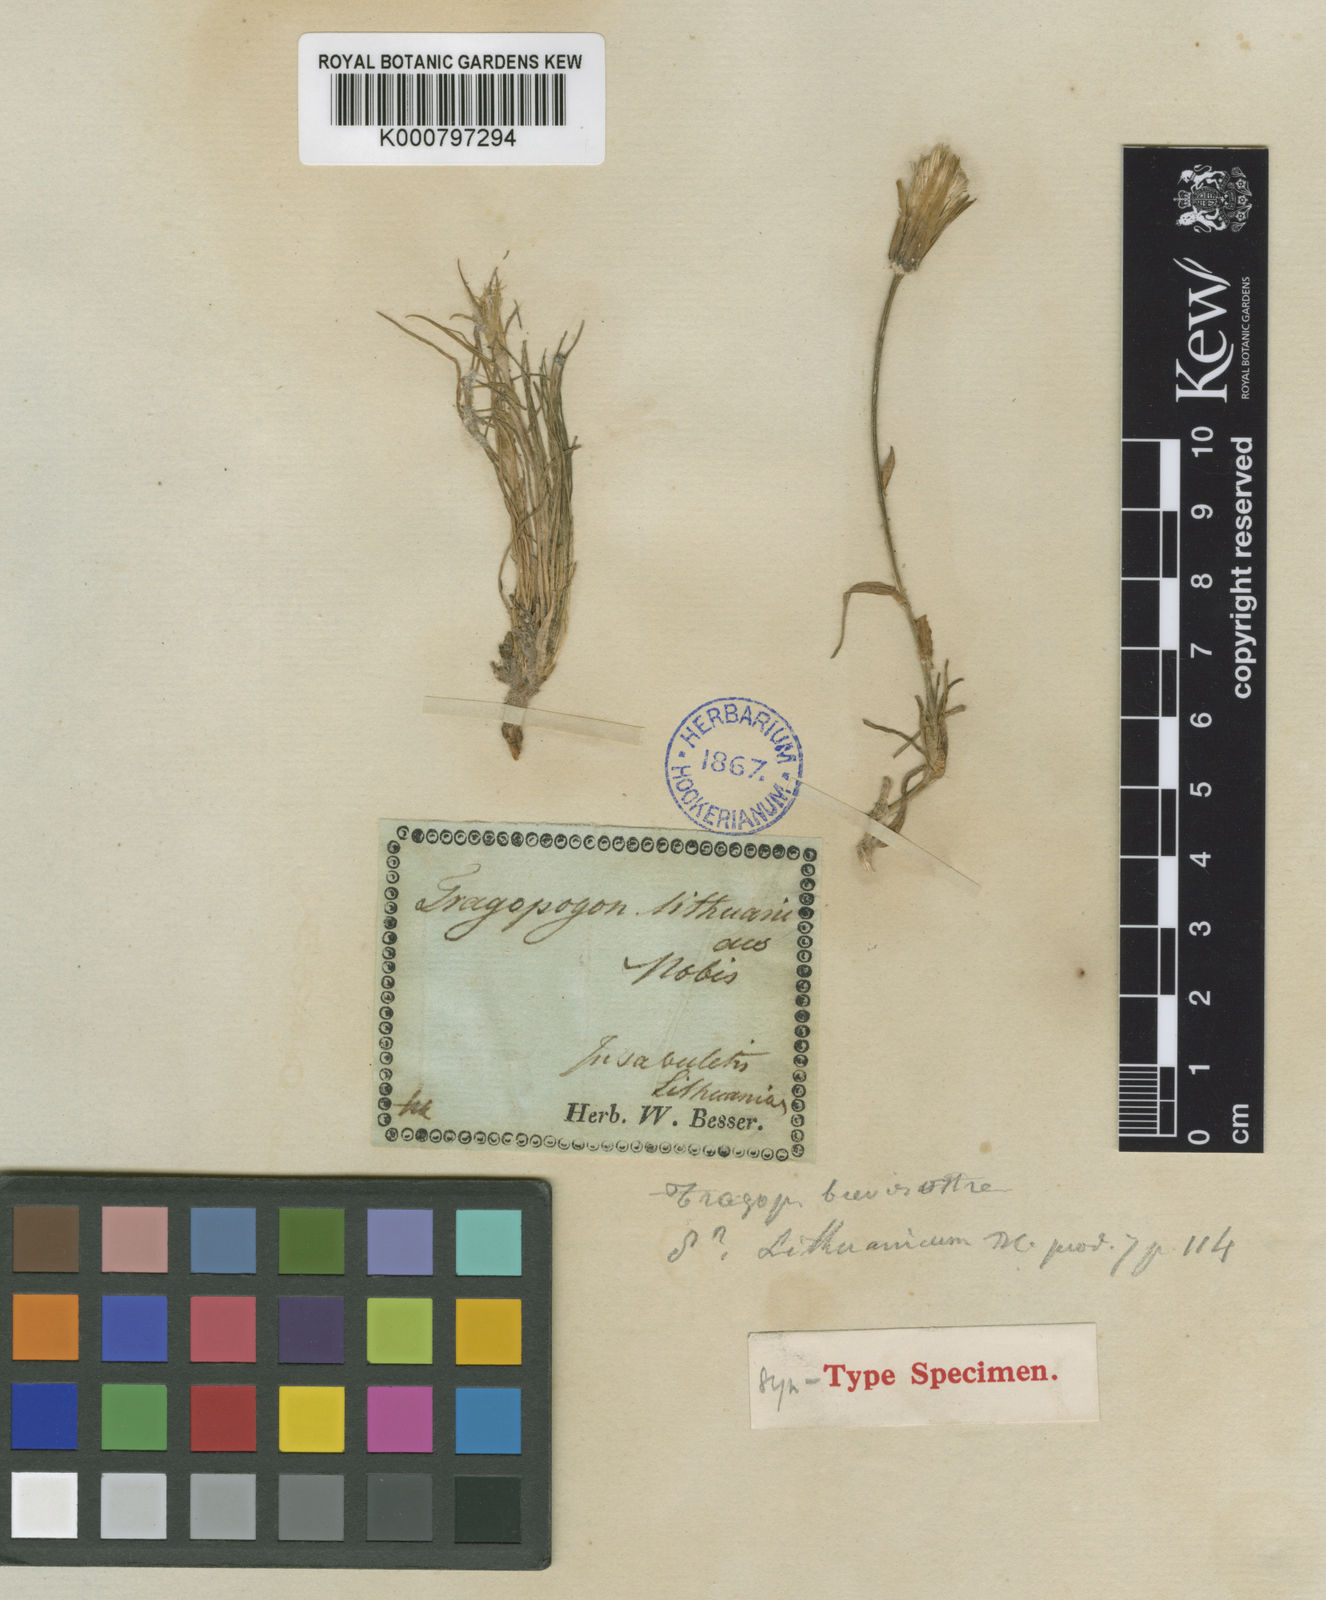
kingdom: Plantae
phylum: Tracheophyta
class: Magnoliopsida
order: Asterales
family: Asteraceae
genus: Tragopogon
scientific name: Tragopogon brevirostris
